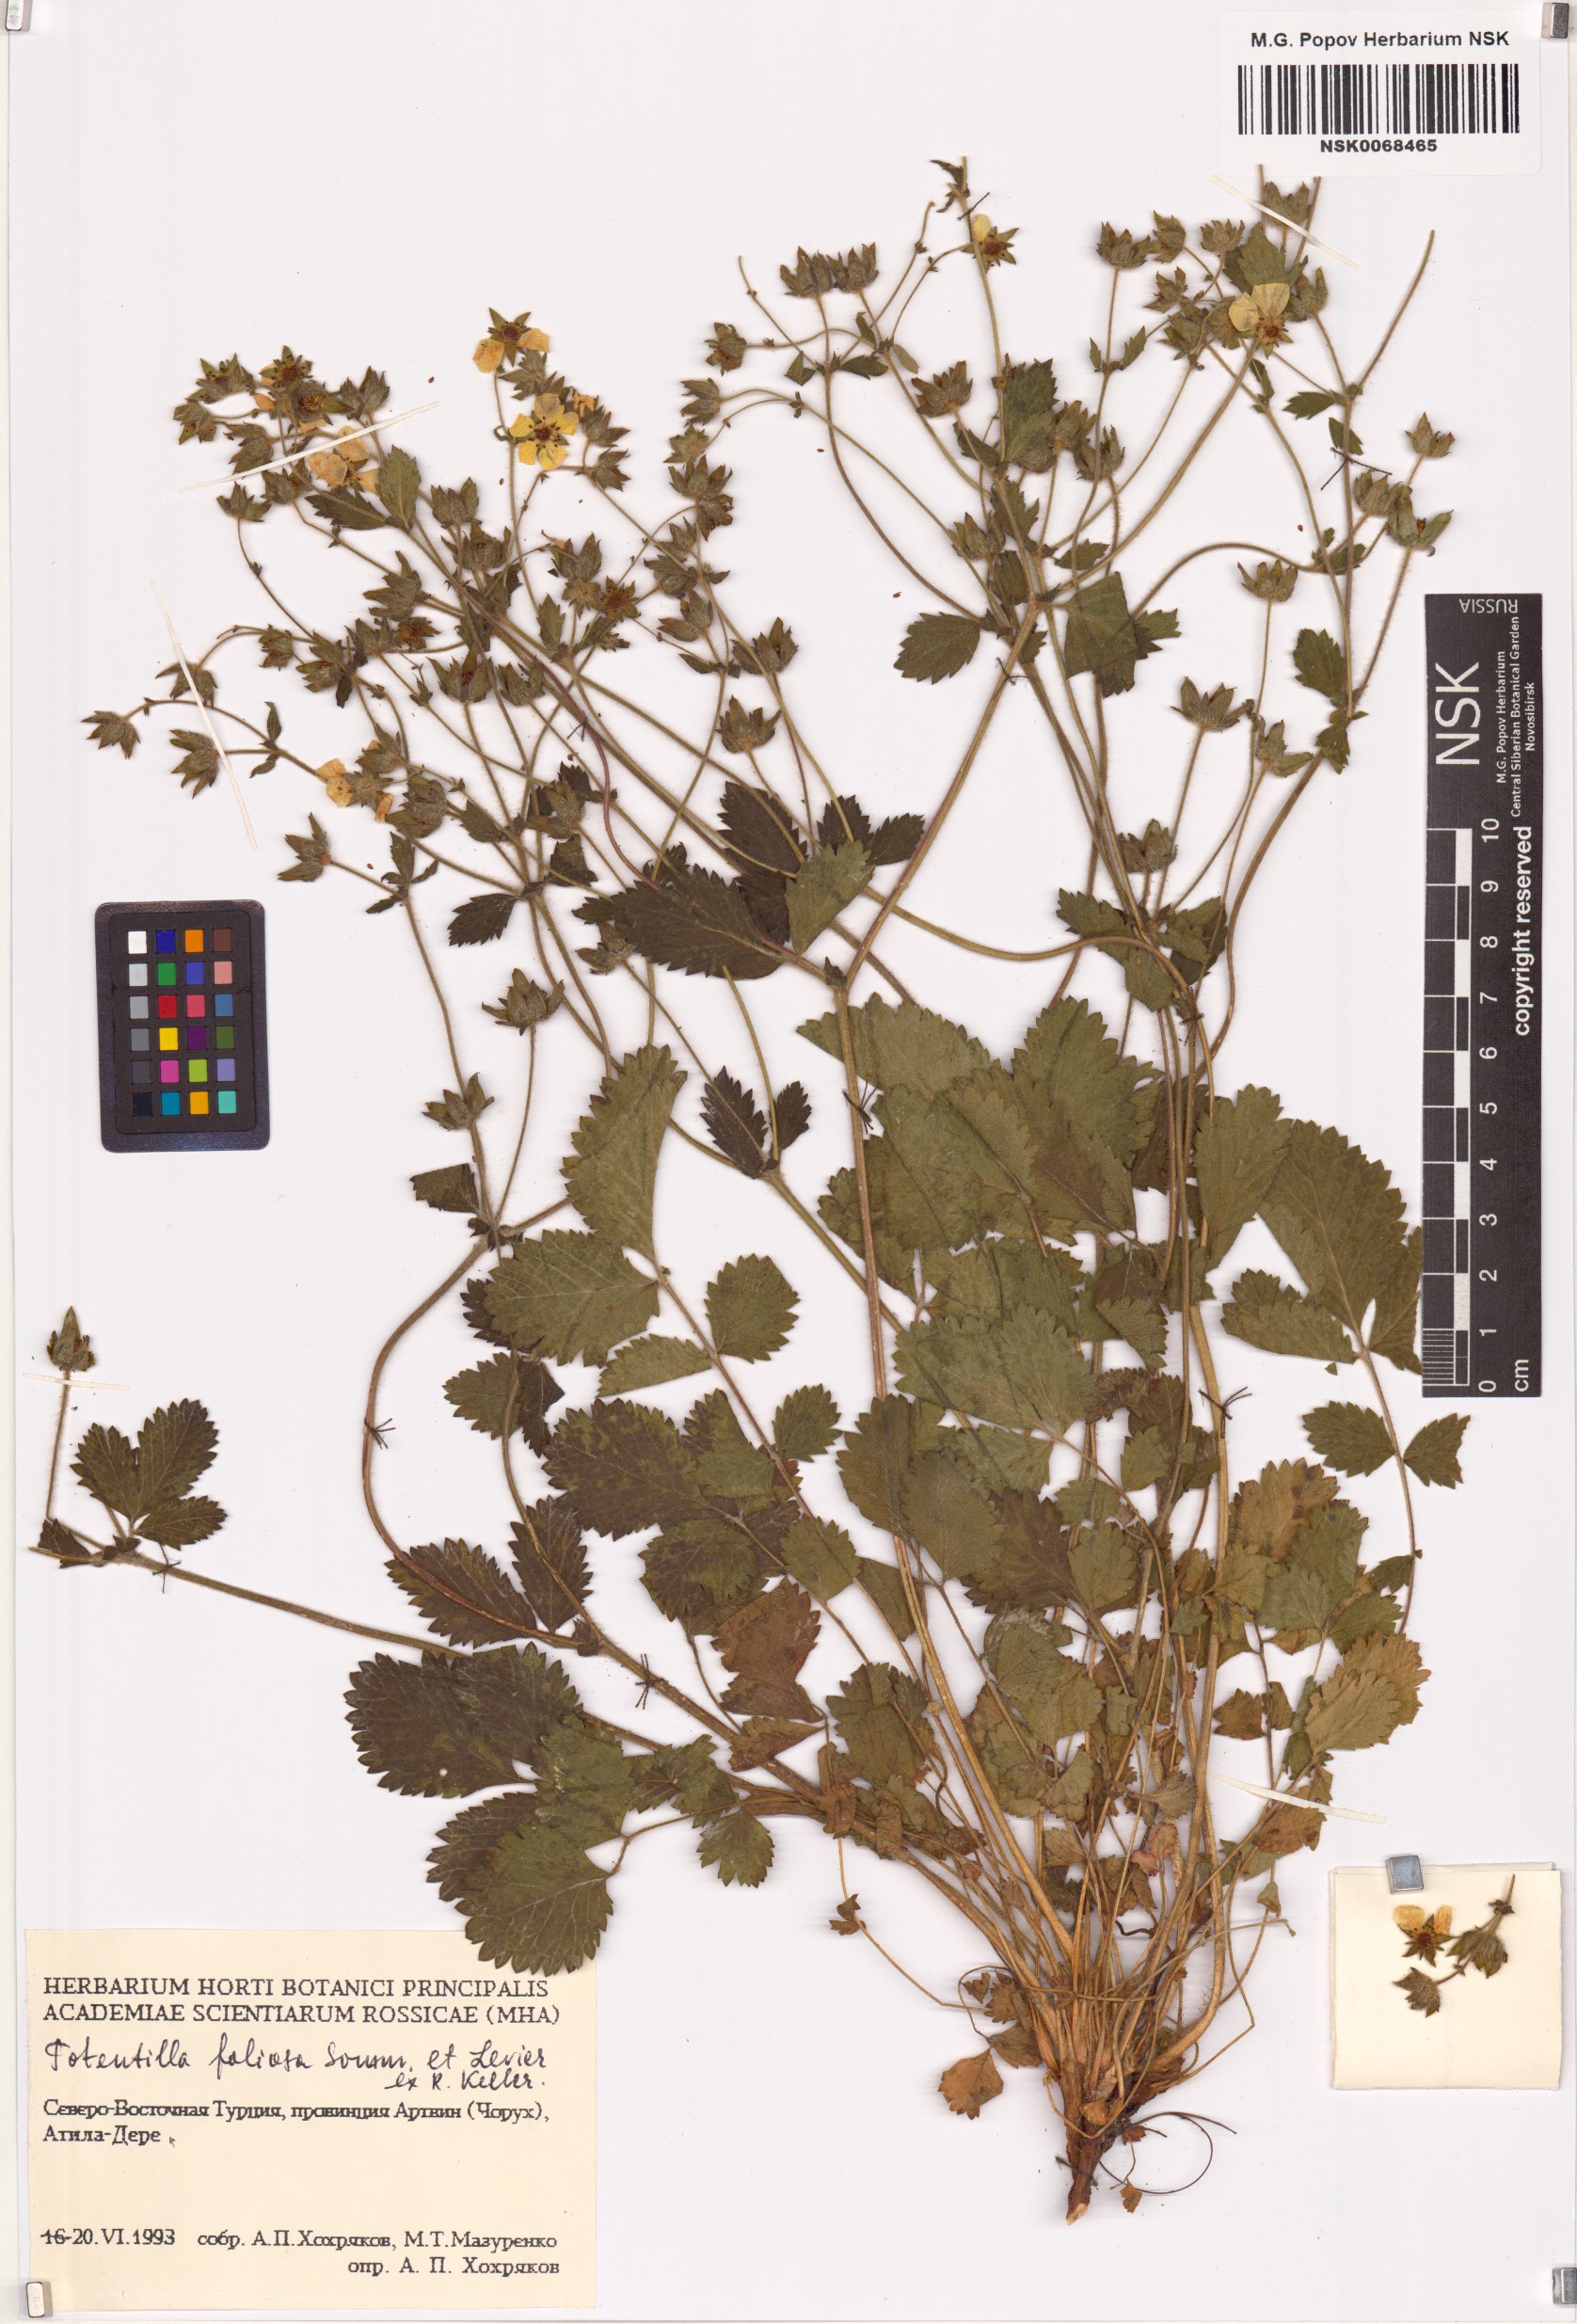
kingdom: Plantae
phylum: Tracheophyta
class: Magnoliopsida
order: Rosales
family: Rosaceae
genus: Drymocallis
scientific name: Drymocallis rupestris
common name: Rock cinquefoil
